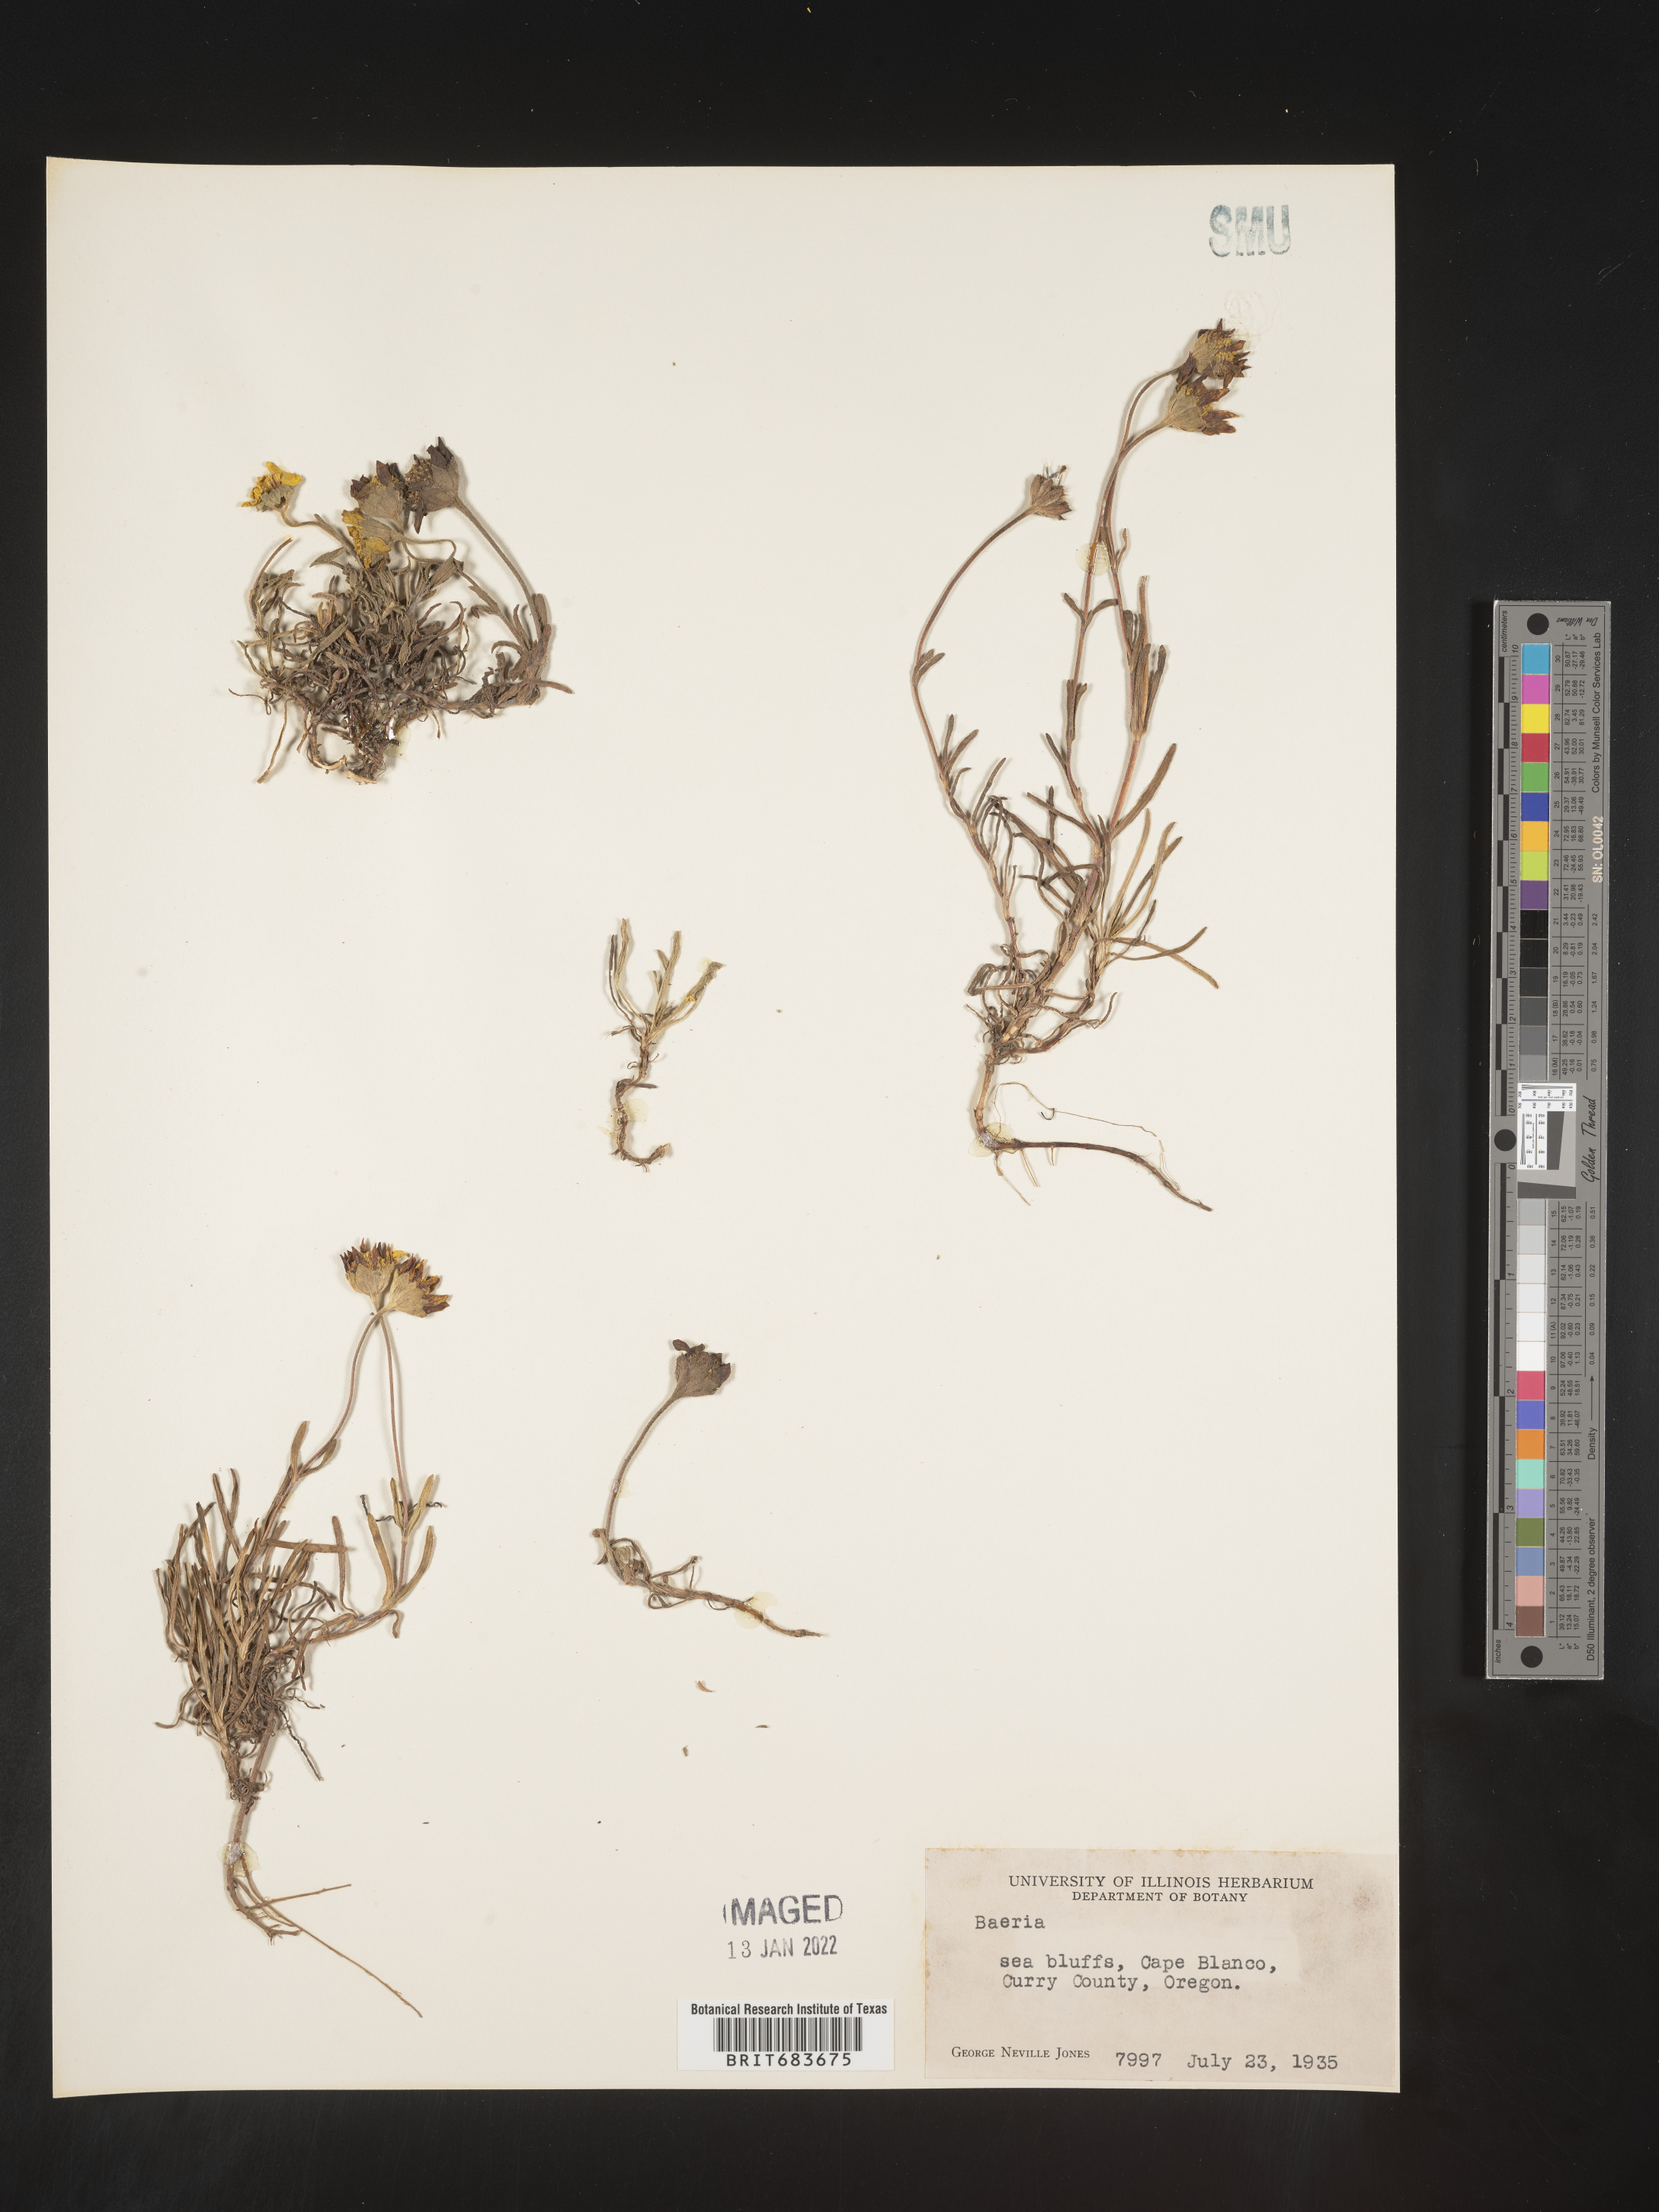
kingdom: Plantae
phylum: Tracheophyta
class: Magnoliopsida
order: Asterales
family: Asteraceae
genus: Lasthenia
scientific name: Lasthenia
